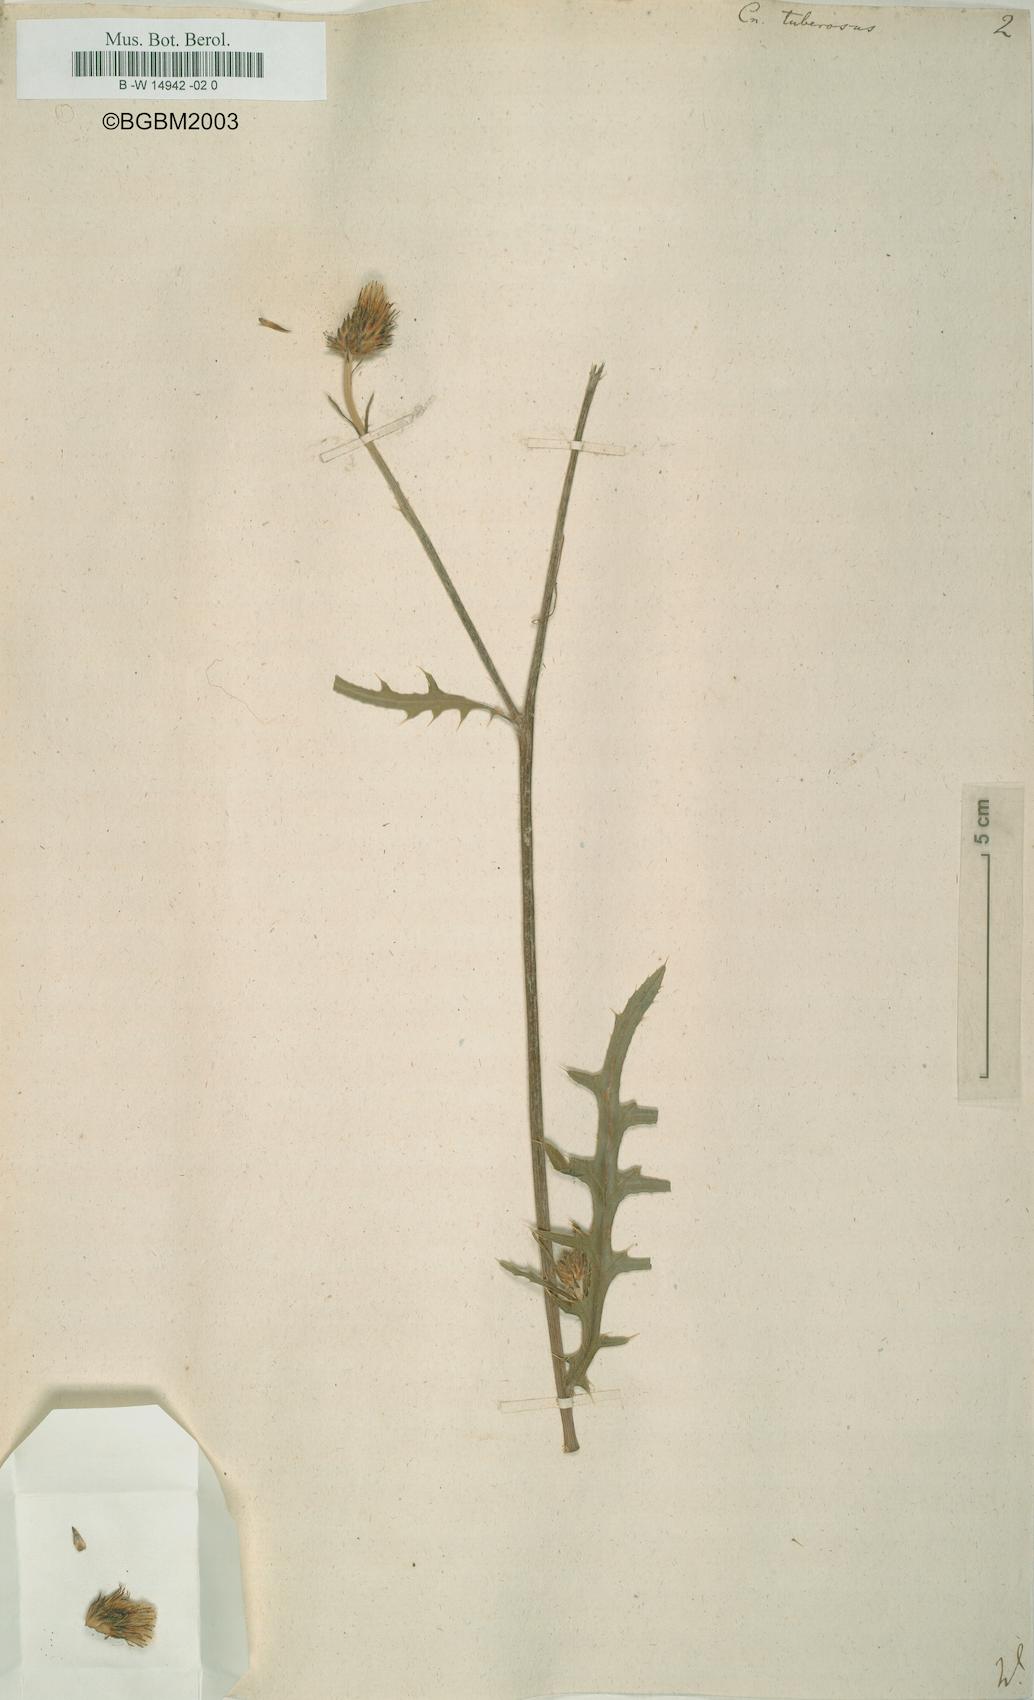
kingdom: Plantae
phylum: Tracheophyta
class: Magnoliopsida
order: Asterales
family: Asteraceae
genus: Cirsium
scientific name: Cirsium Cnicus tuberosus
